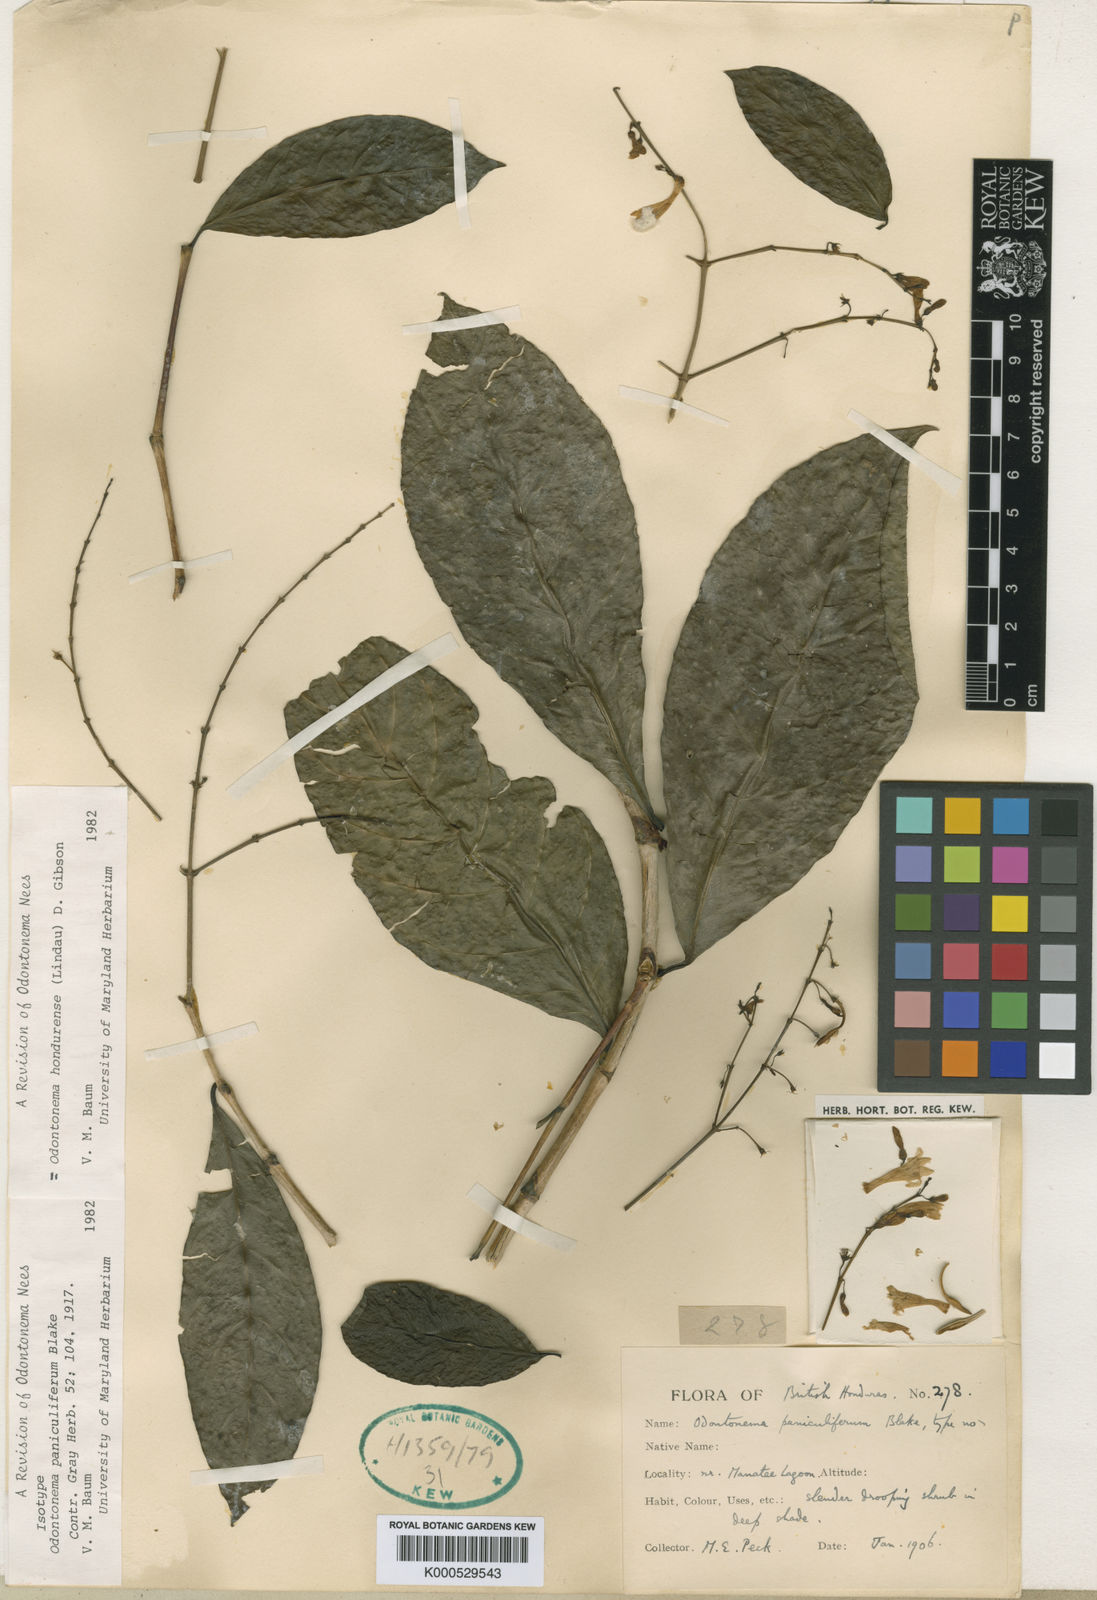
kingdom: Plantae
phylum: Tracheophyta
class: Magnoliopsida
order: Lamiales
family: Acanthaceae
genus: Odontonema
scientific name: Odontonema
